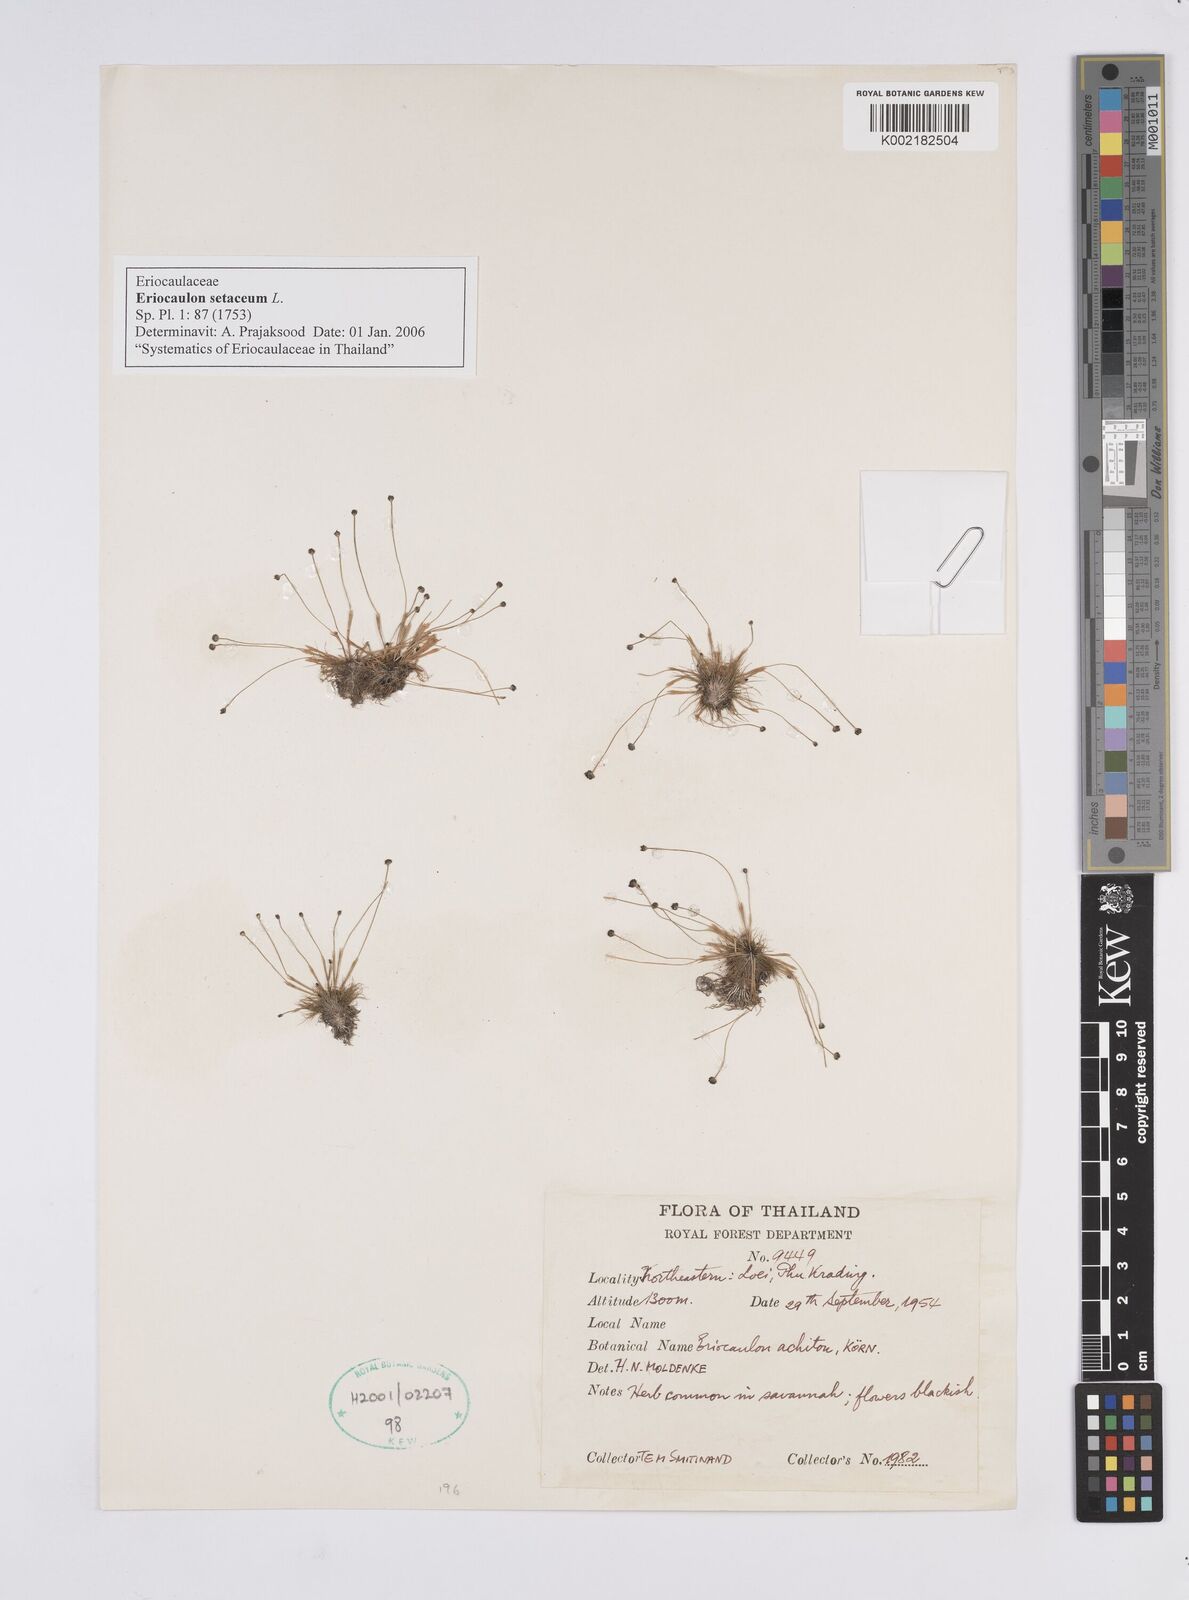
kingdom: Plantae
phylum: Tracheophyta
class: Liliopsida
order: Poales
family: Eriocaulaceae
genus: Eriocaulon
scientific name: Eriocaulon setaceum
